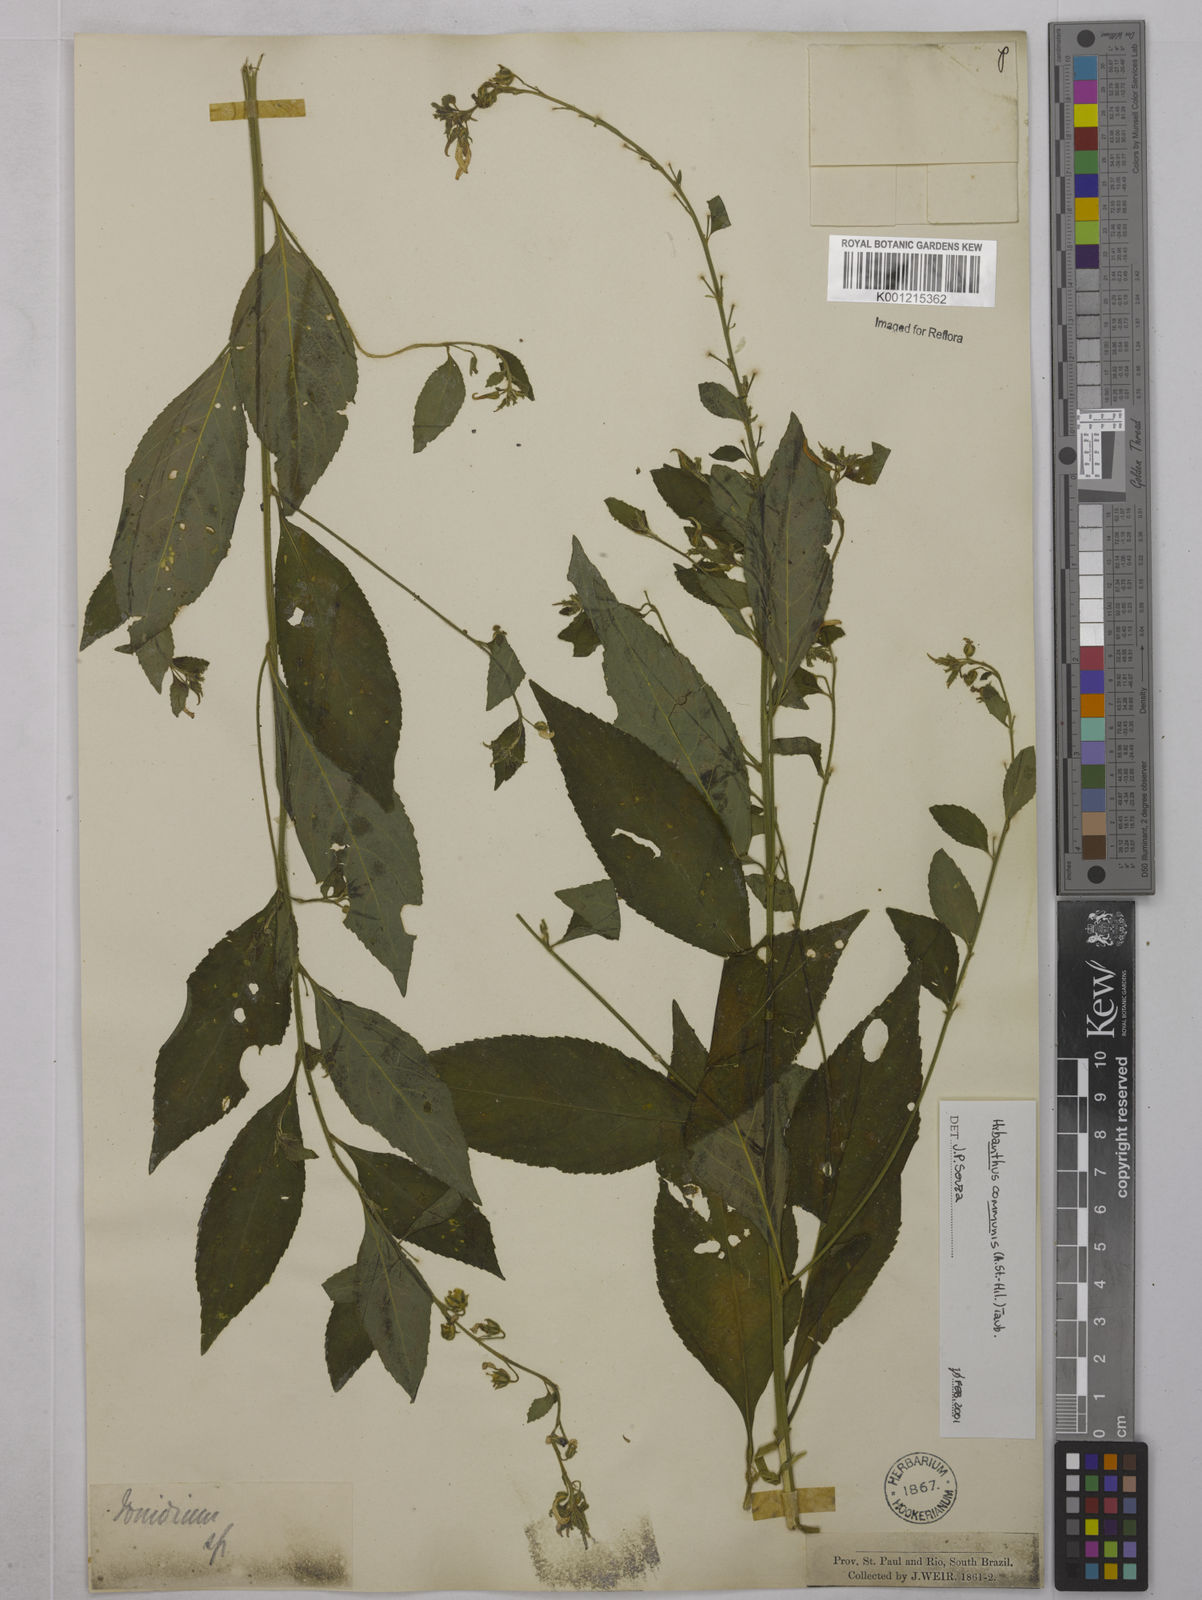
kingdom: Plantae
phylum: Tracheophyta
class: Magnoliopsida
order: Malpighiales
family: Violaceae
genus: Pombalia
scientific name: Pombalia communis
